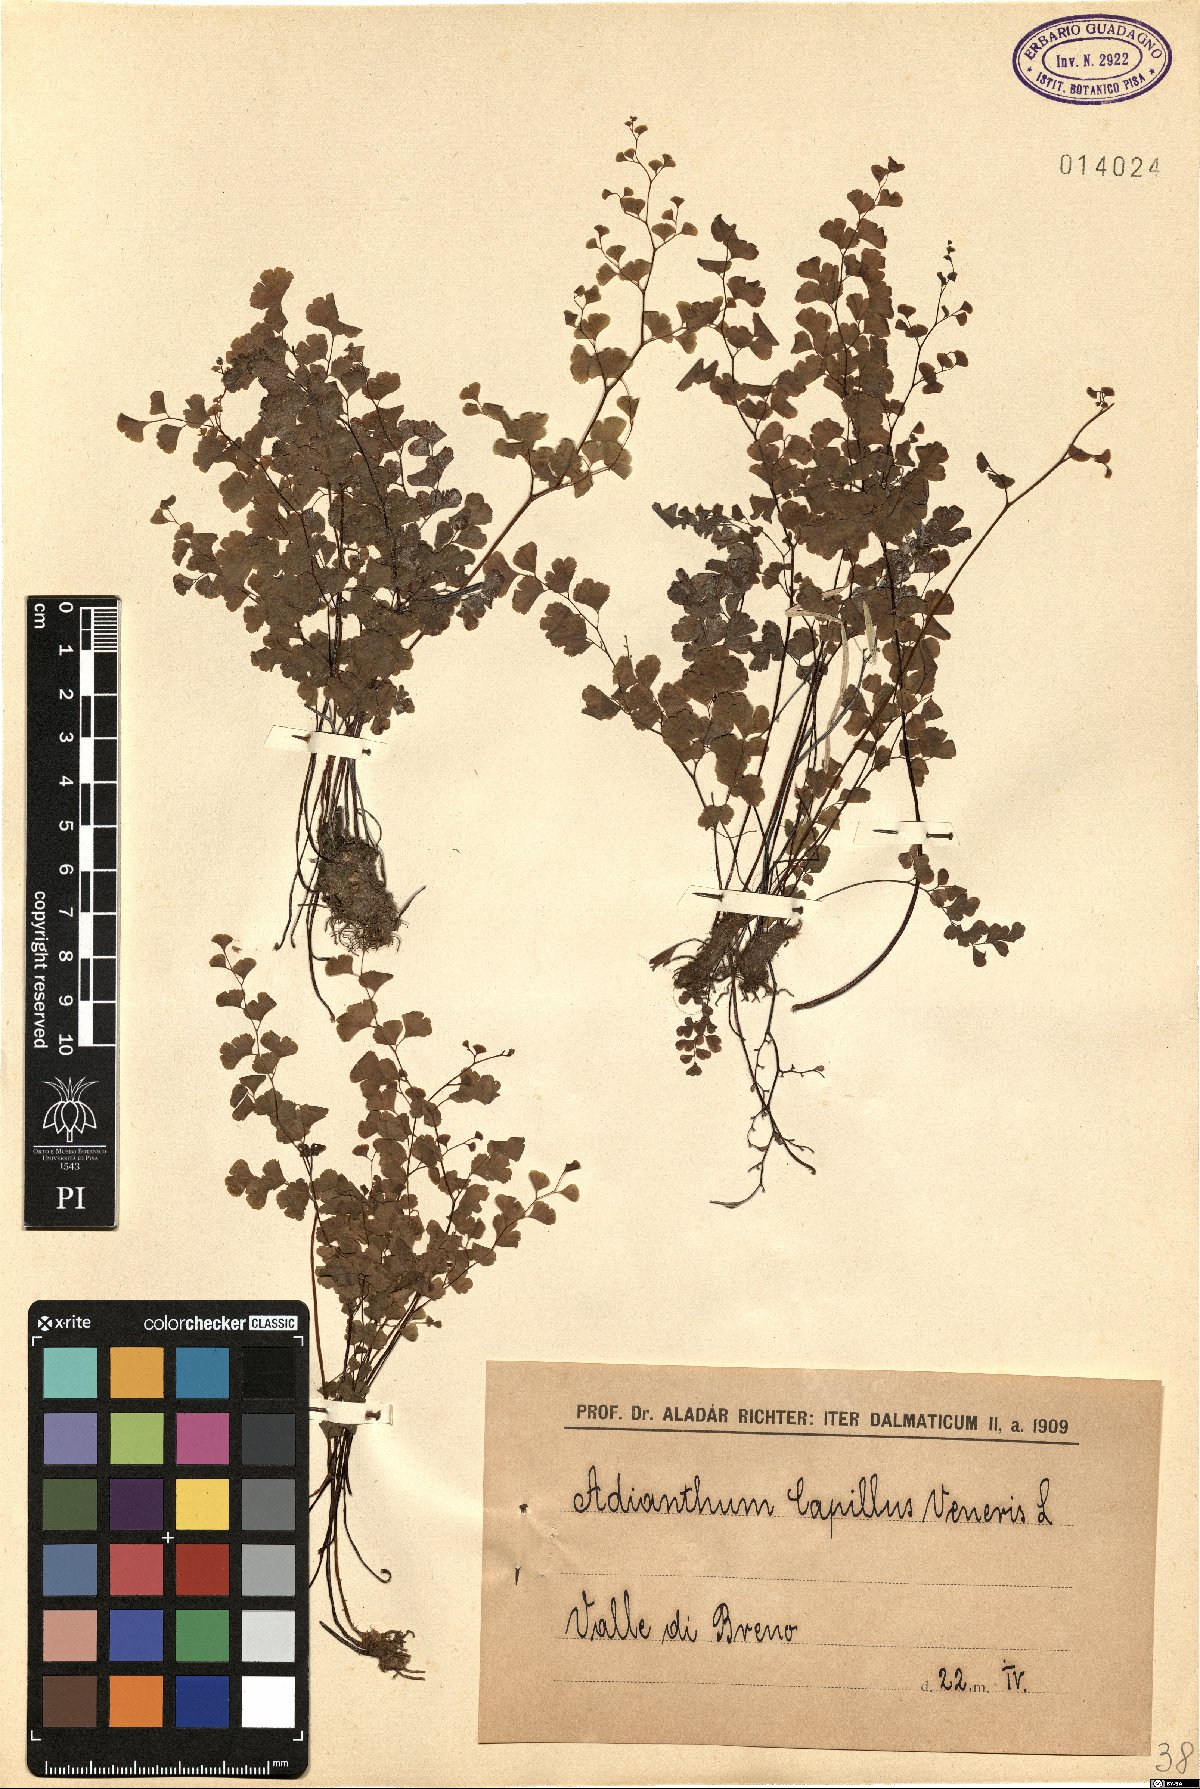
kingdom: Plantae
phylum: Tracheophyta
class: Polypodiopsida
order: Polypodiales
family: Pteridaceae
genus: Adiantum
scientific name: Adiantum capillus-veneris
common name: Maidenhair fern
